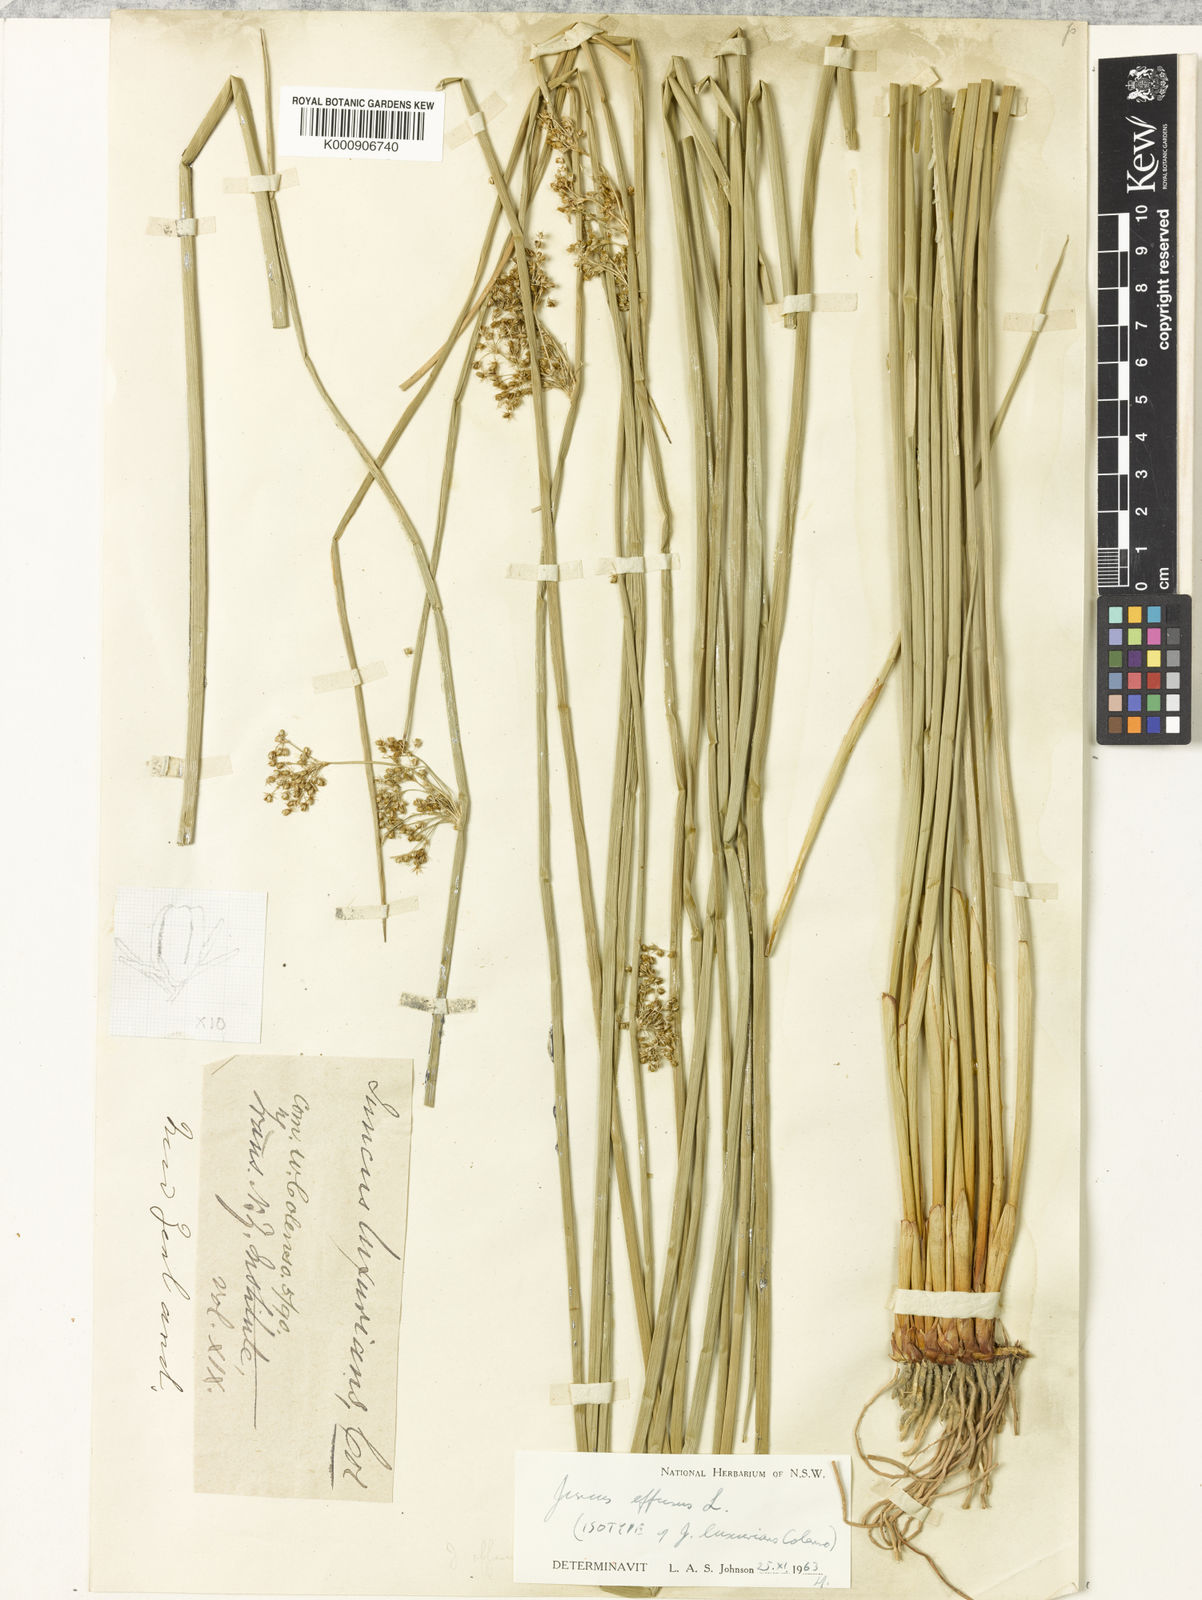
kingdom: Plantae
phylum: Tracheophyta
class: Liliopsida
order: Poales
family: Juncaceae
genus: Juncus
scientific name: Juncus effusus
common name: Soft rush
